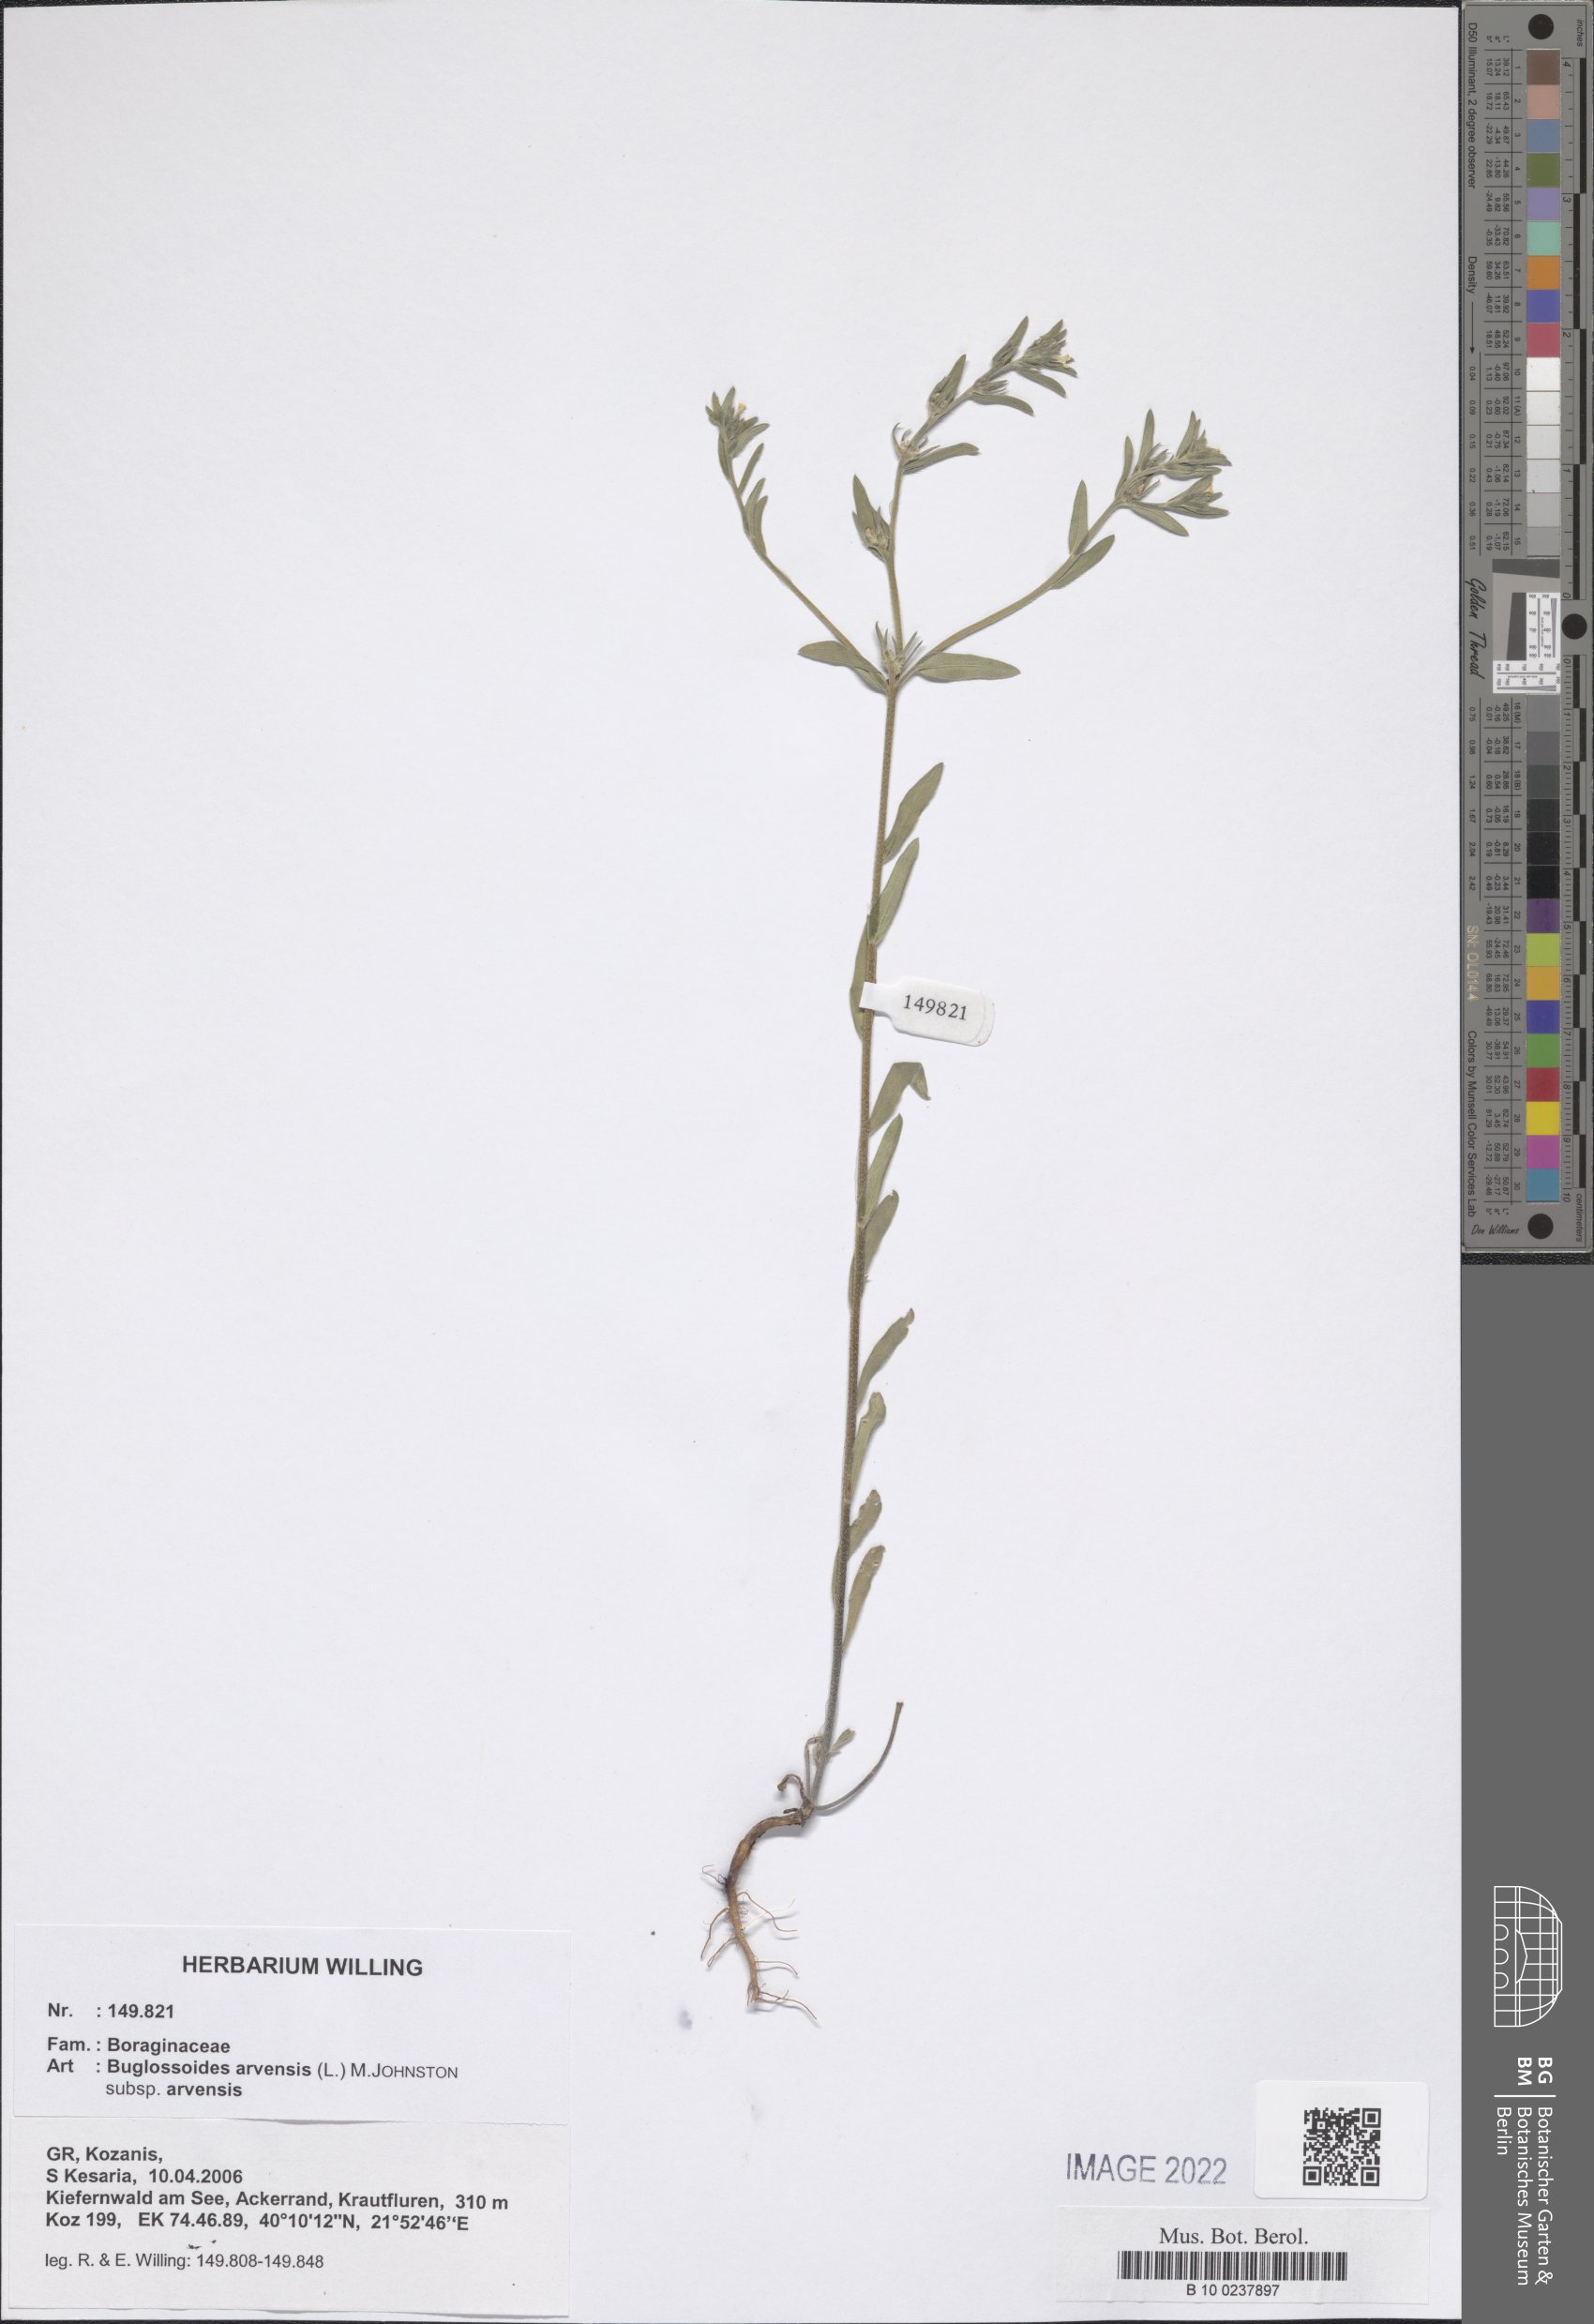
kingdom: Plantae
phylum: Tracheophyta
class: Magnoliopsida
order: Boraginales
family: Boraginaceae
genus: Buglossoides
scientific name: Buglossoides arvensis
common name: Corn gromwell
